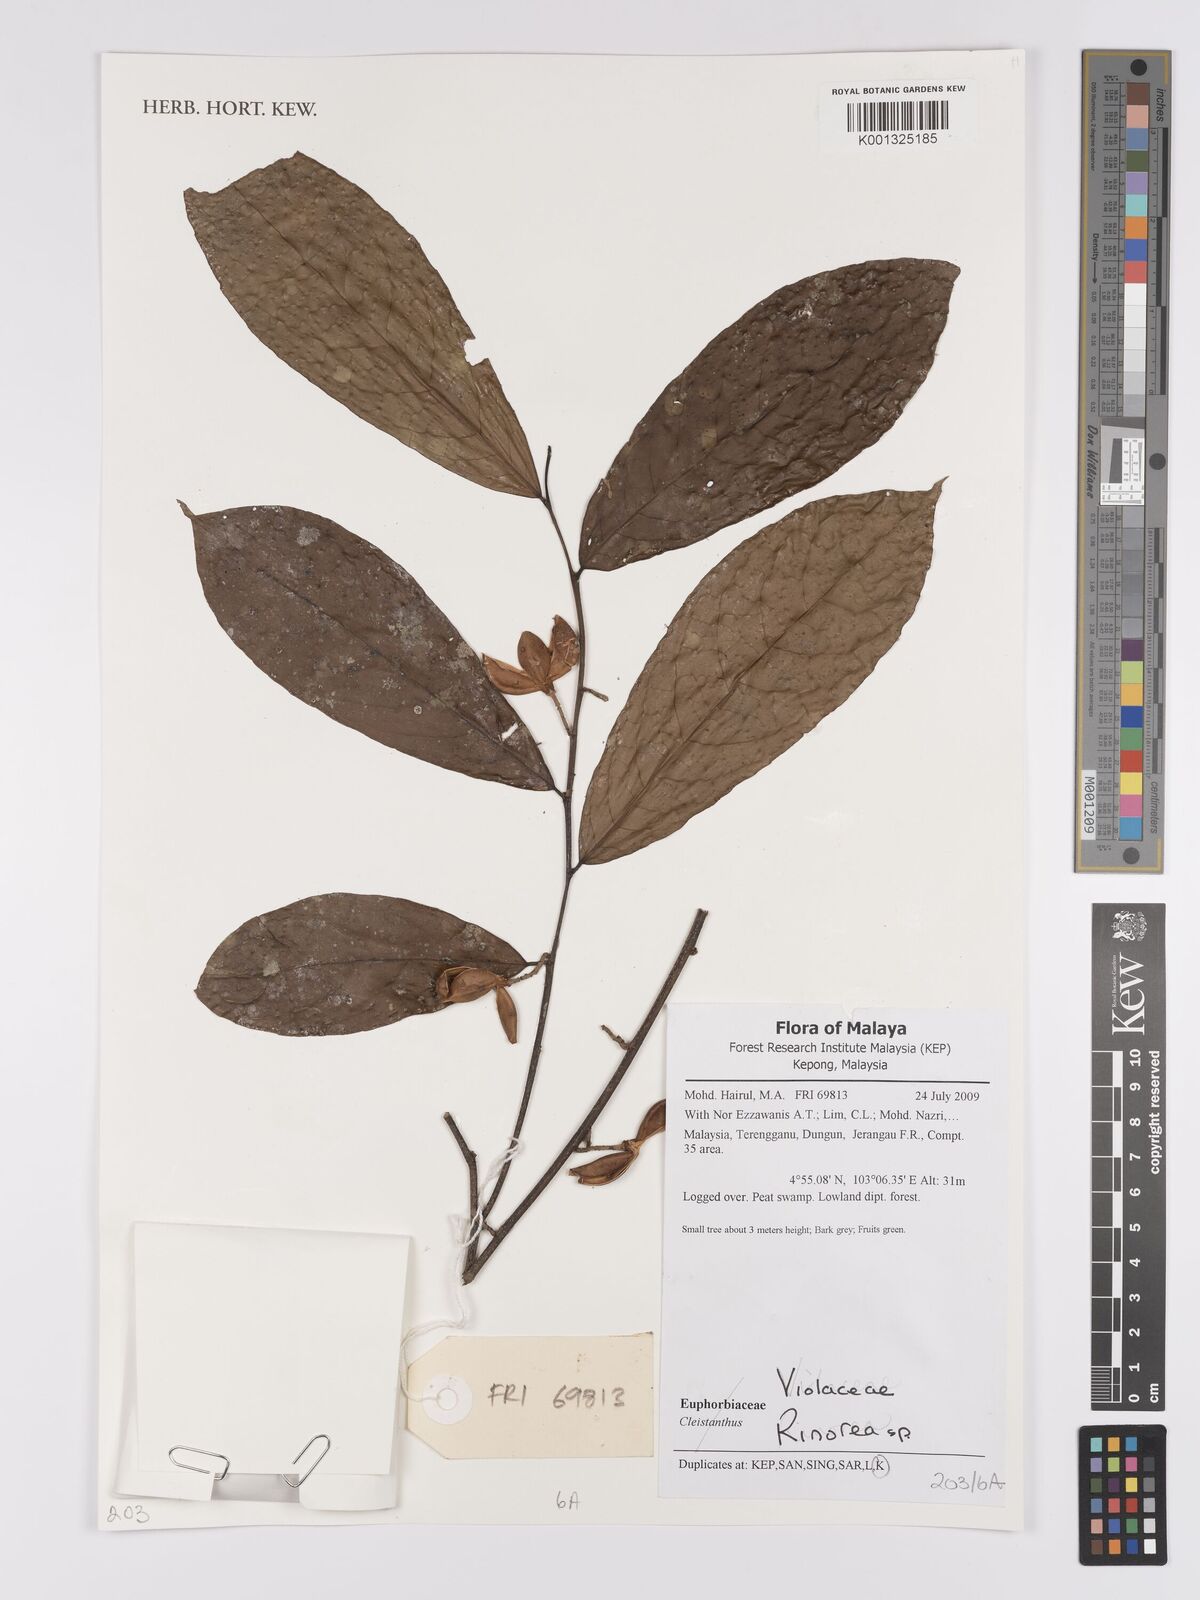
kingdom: Plantae
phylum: Tracheophyta
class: Magnoliopsida
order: Malpighiales
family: Violaceae
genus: Rinorea
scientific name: Rinorea
